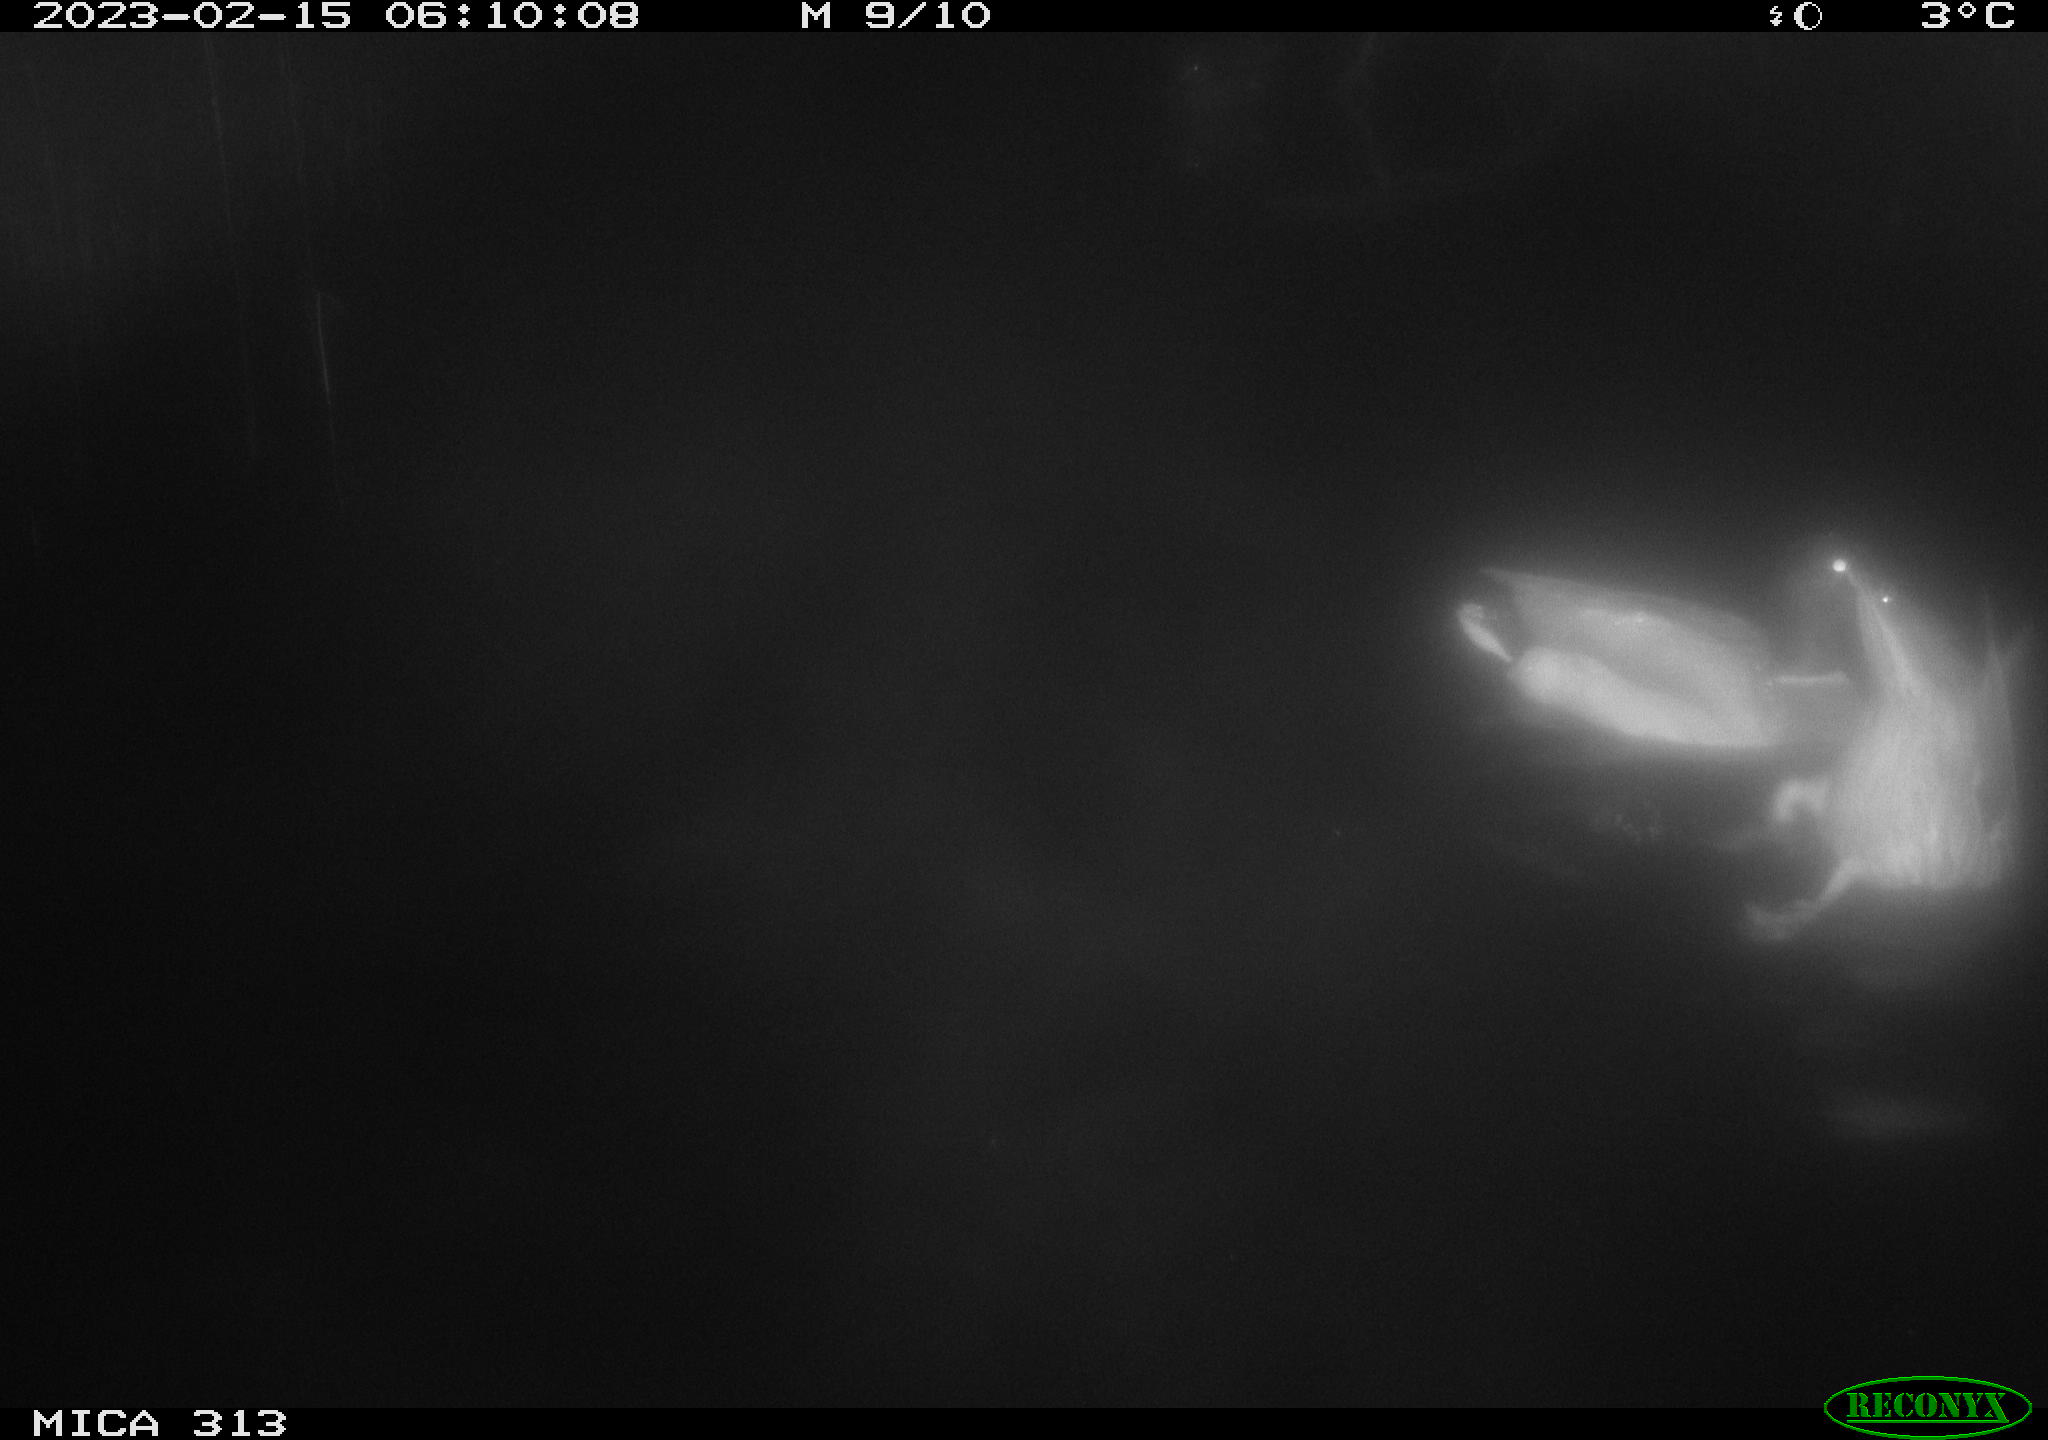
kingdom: Animalia
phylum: Chordata
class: Aves
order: Anseriformes
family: Anatidae
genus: Anas
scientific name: Anas
